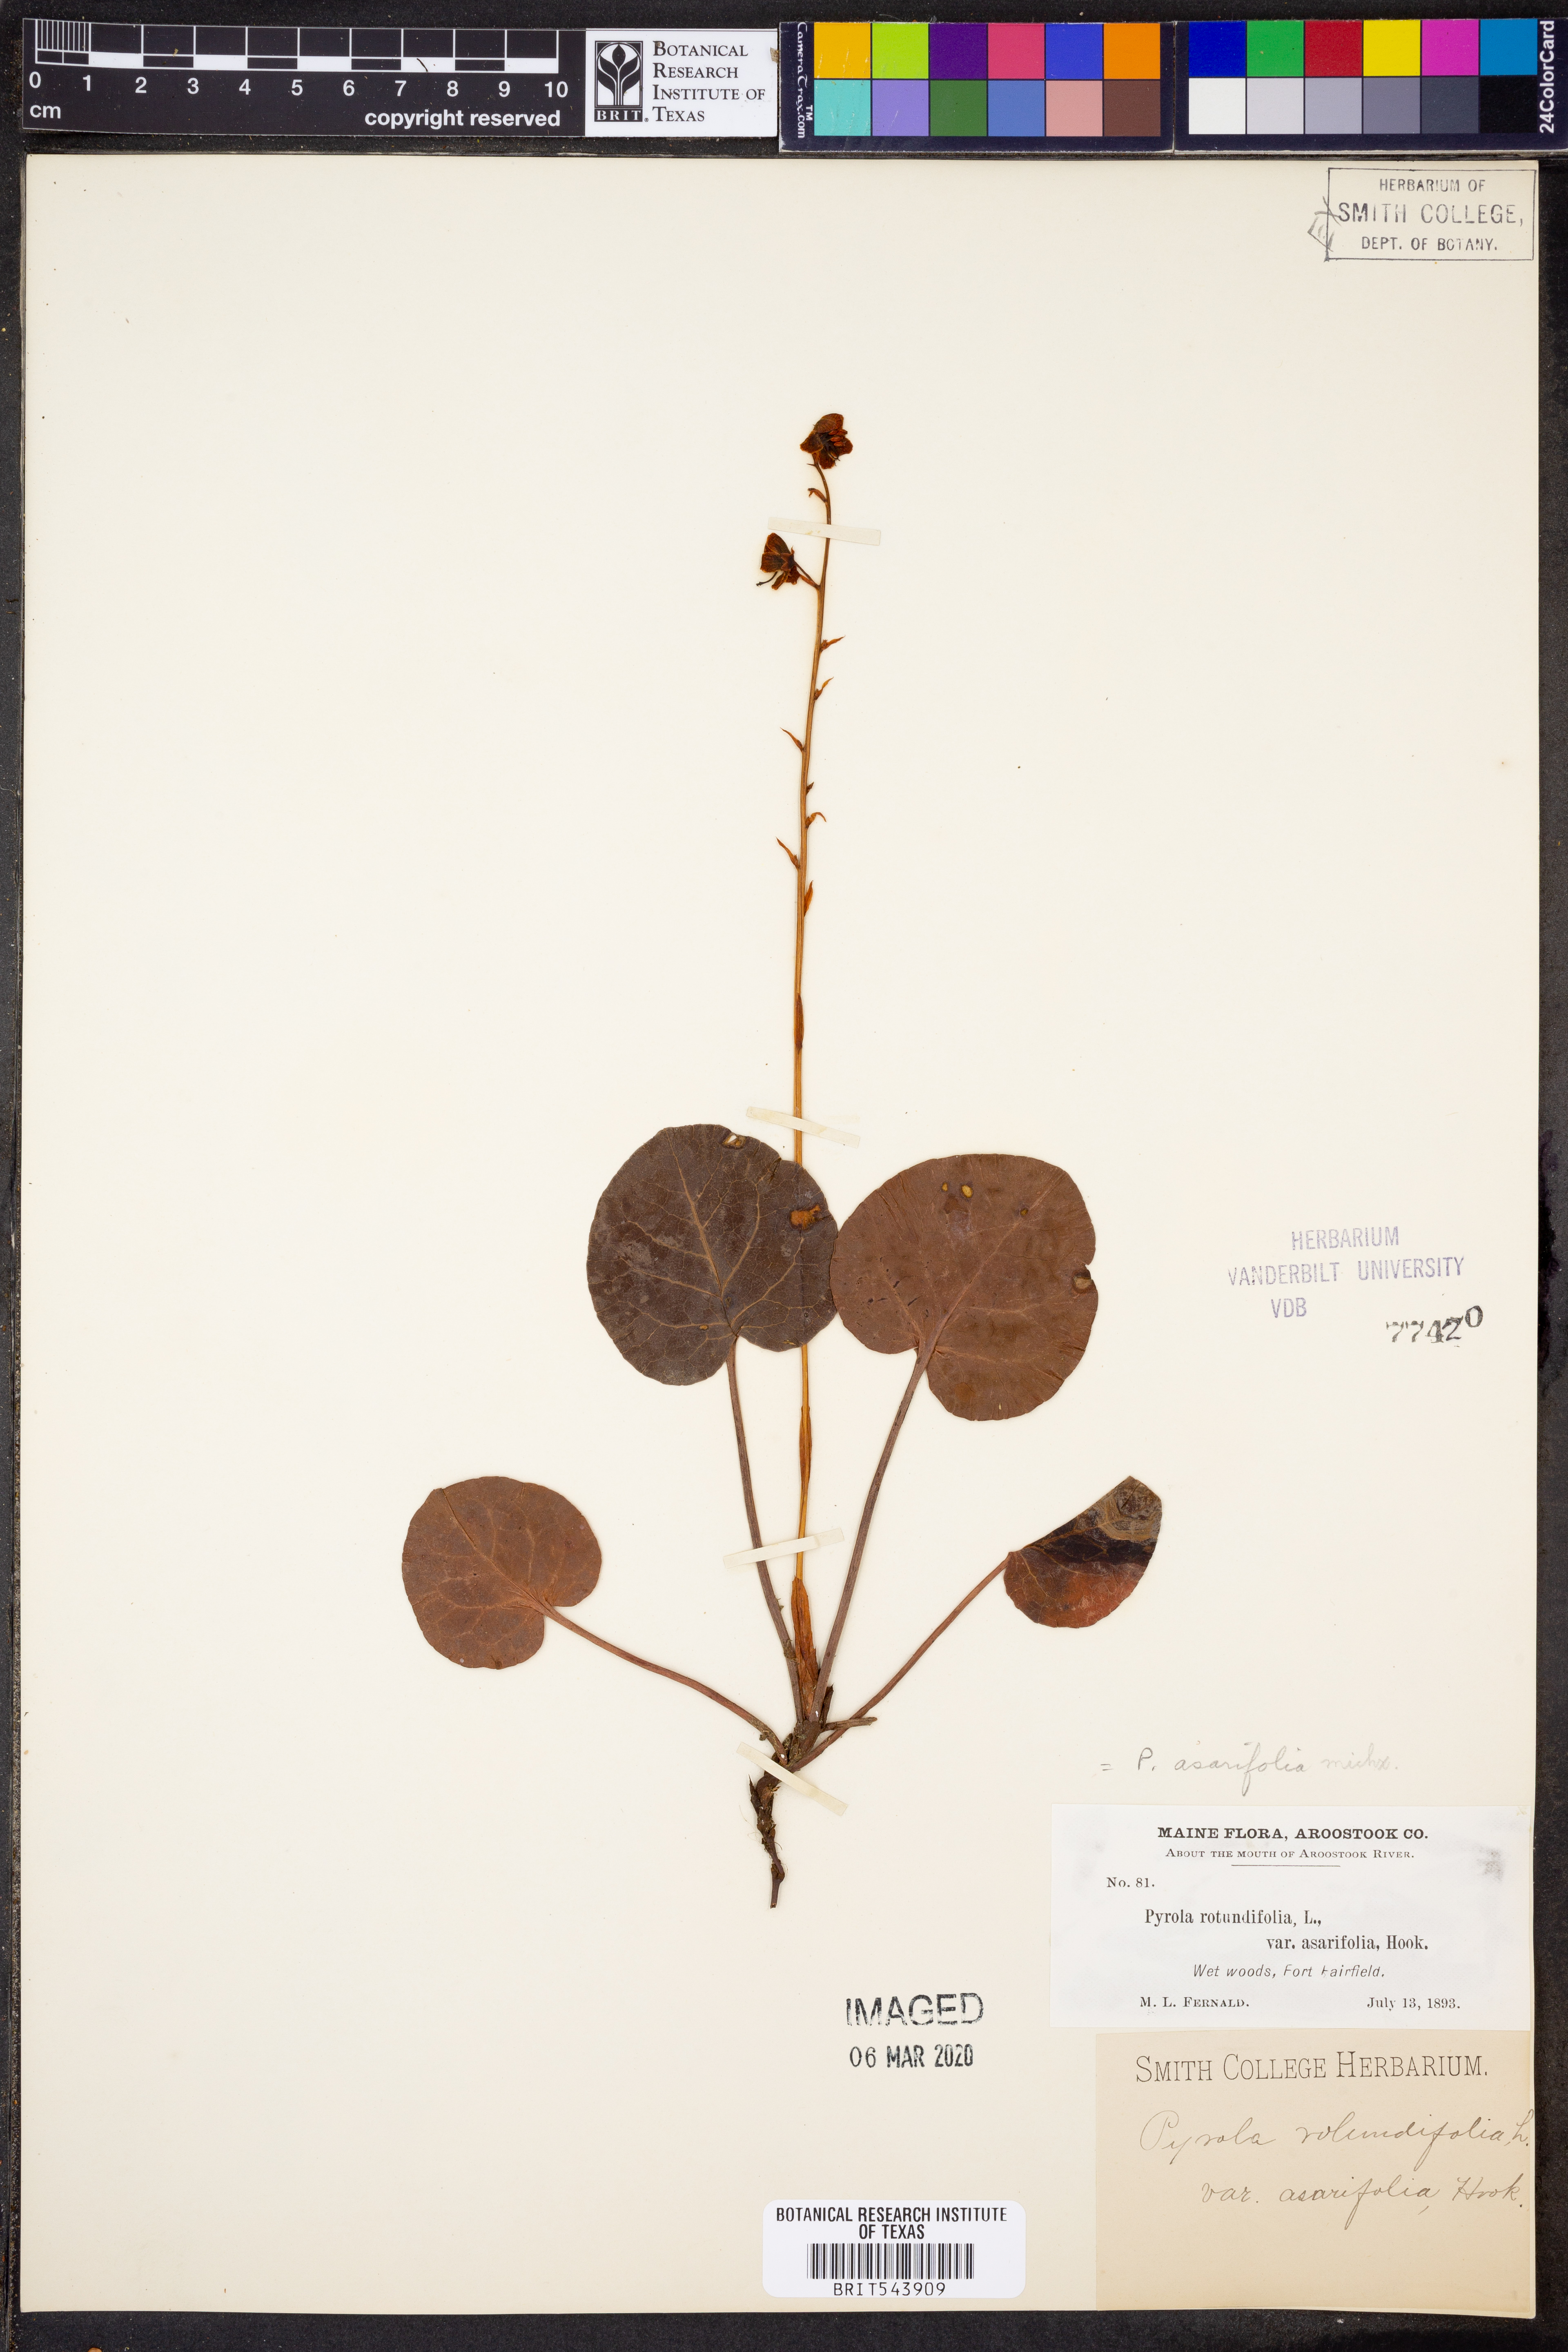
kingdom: Plantae
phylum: Tracheophyta
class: Magnoliopsida
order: Ericales
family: Ericaceae
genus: Pyrola
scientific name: Pyrola asarifolia
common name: Bog wintergreen
